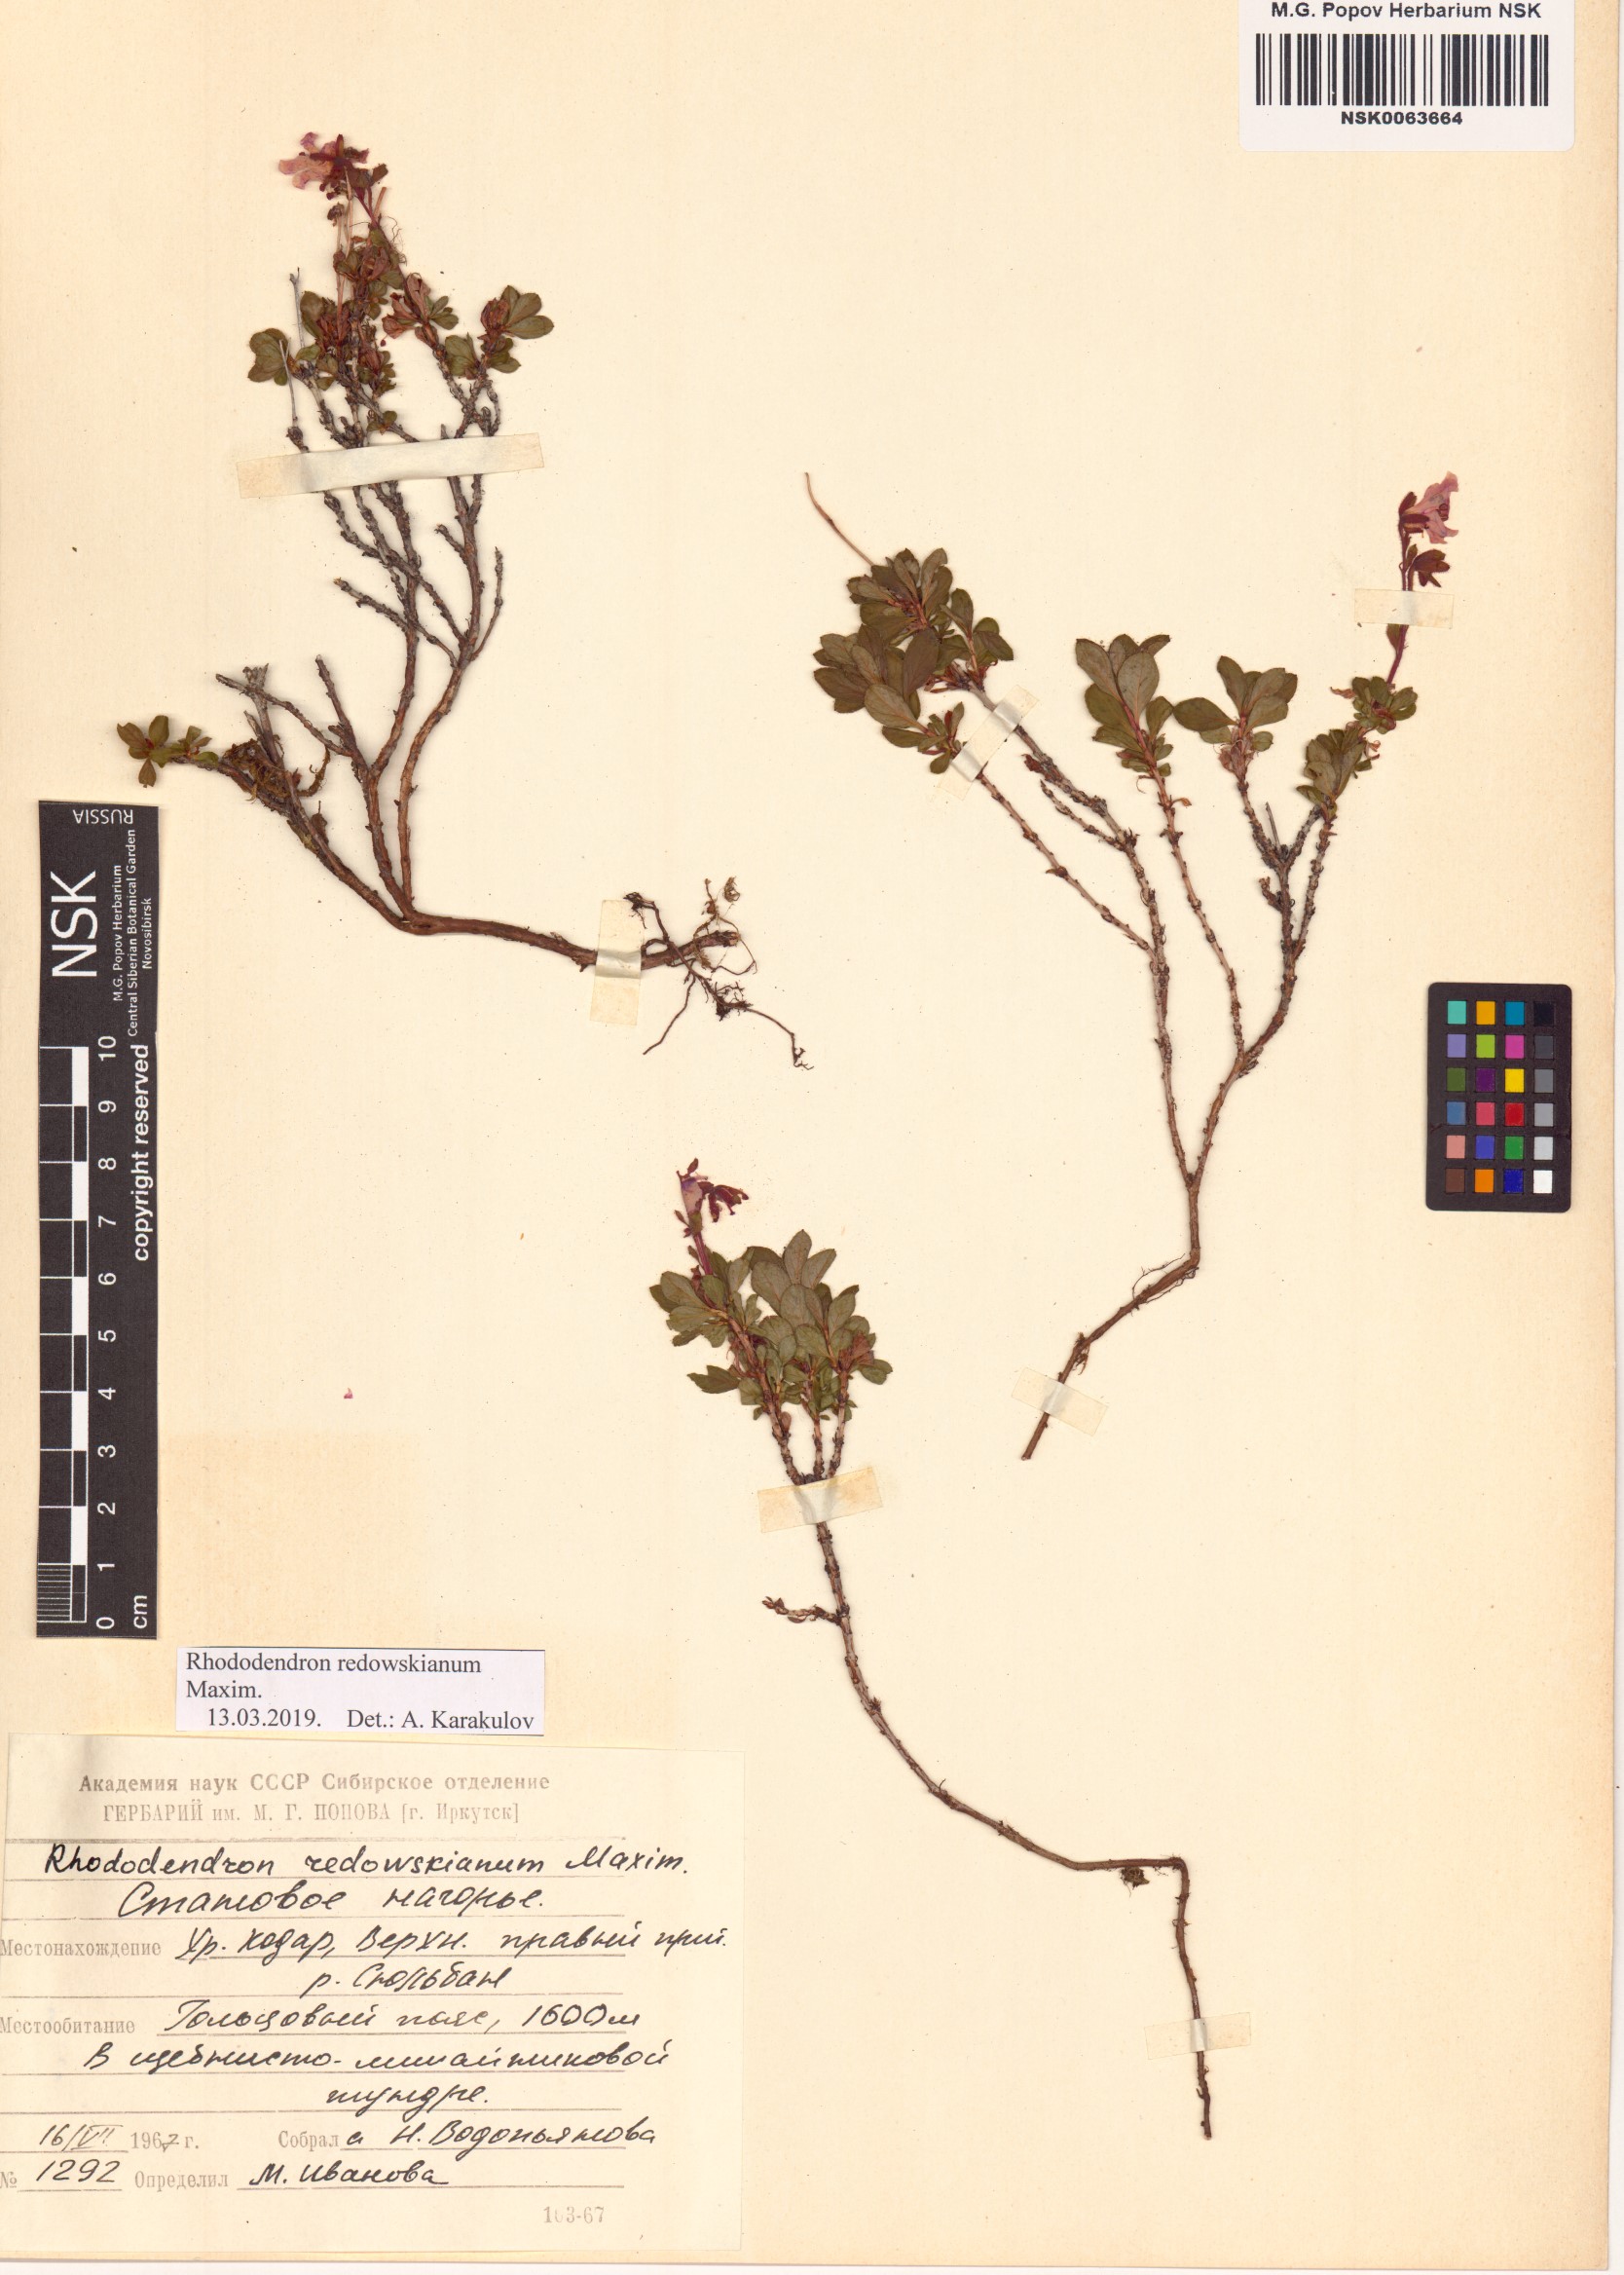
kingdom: Plantae
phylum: Tracheophyta
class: Magnoliopsida
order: Ericales
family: Ericaceae
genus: Rhododendron
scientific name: Rhododendron redowskianum
